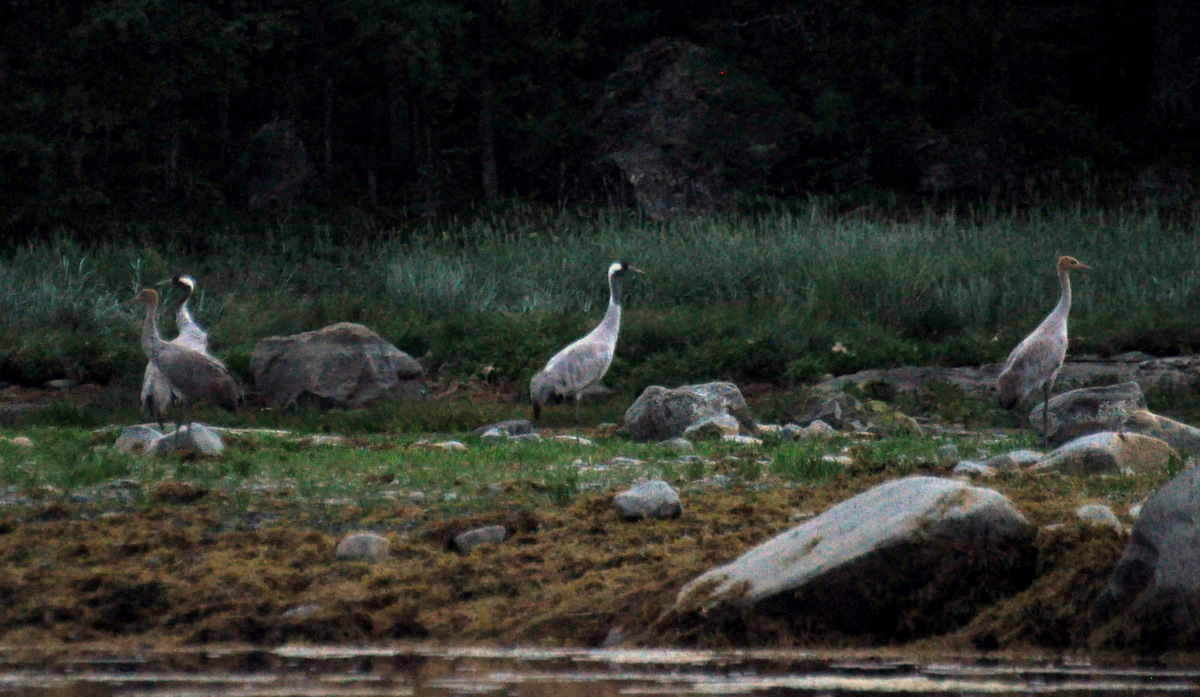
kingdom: Animalia
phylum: Chordata
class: Aves
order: Gruiformes
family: Gruidae
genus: Grus
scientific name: Grus grus
